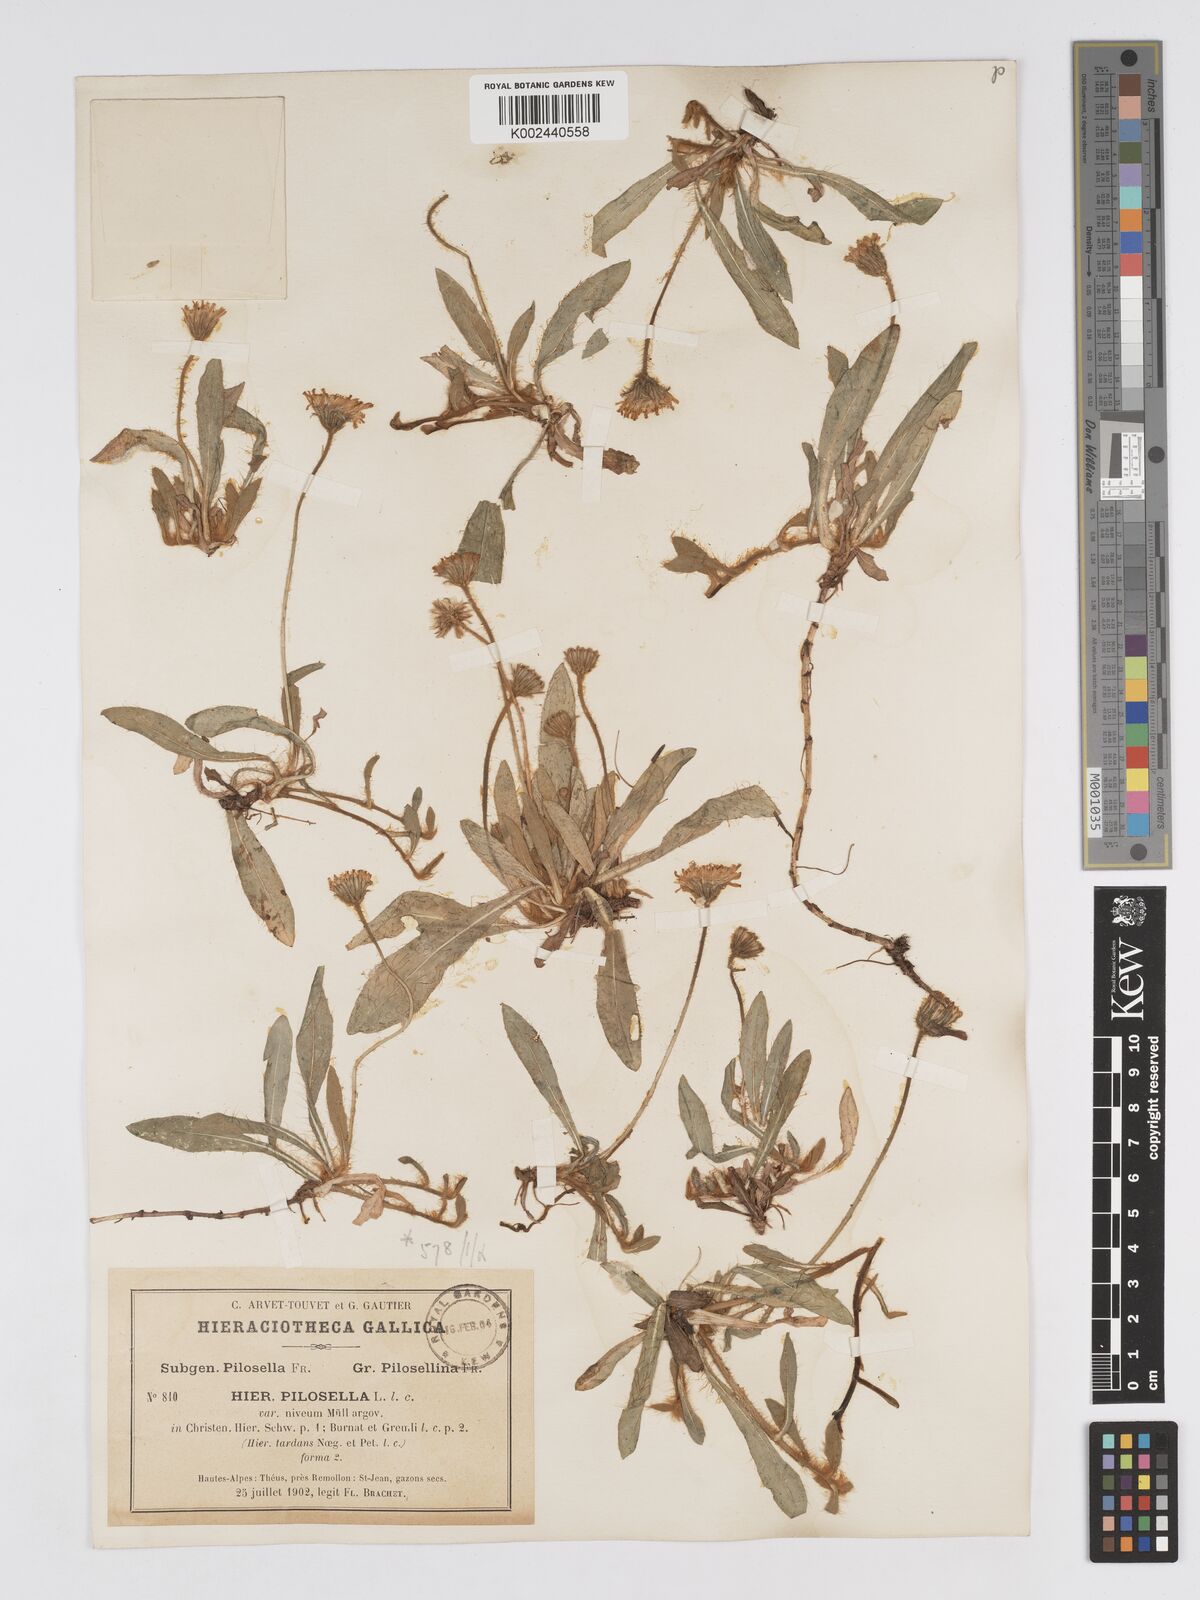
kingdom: Plantae
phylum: Tracheophyta
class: Magnoliopsida
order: Asterales
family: Asteraceae
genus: Pilosella
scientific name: Pilosella tardans
